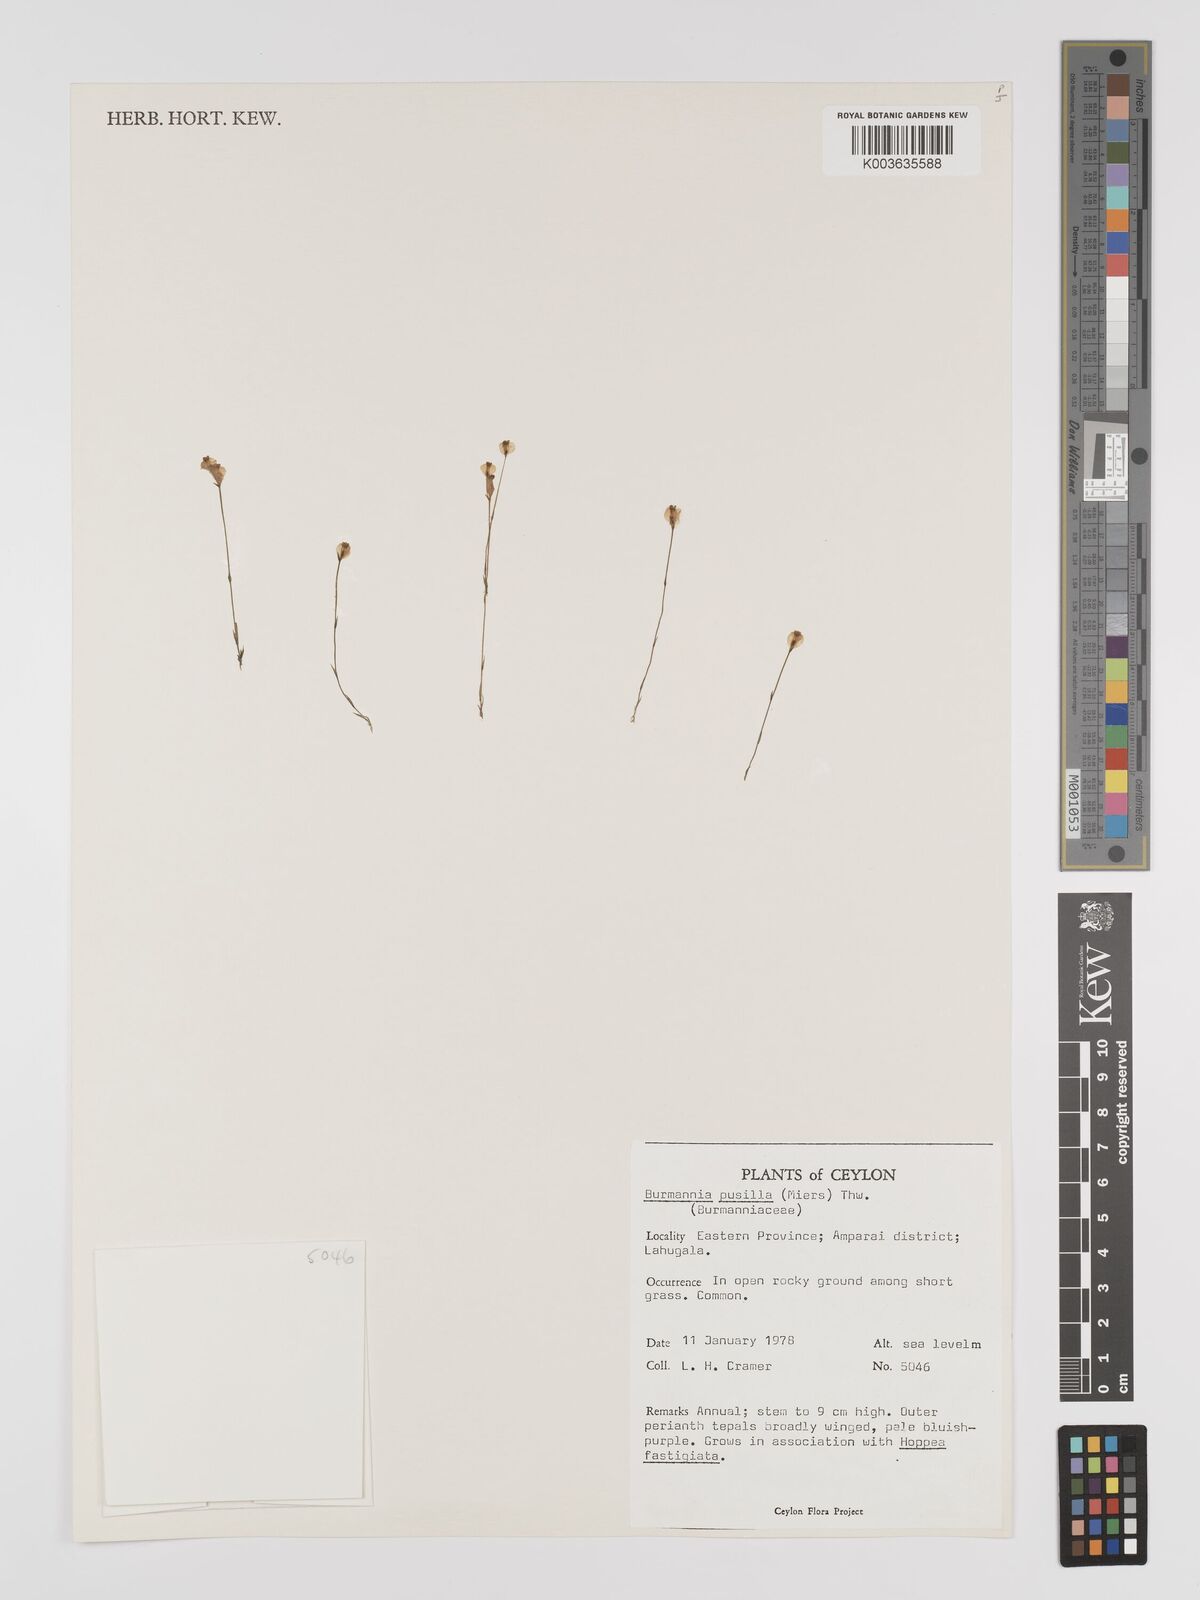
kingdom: Plantae
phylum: Tracheophyta
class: Liliopsida
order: Dioscoreales
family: Burmanniaceae
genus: Burmannia
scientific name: Burmannia pusilla
